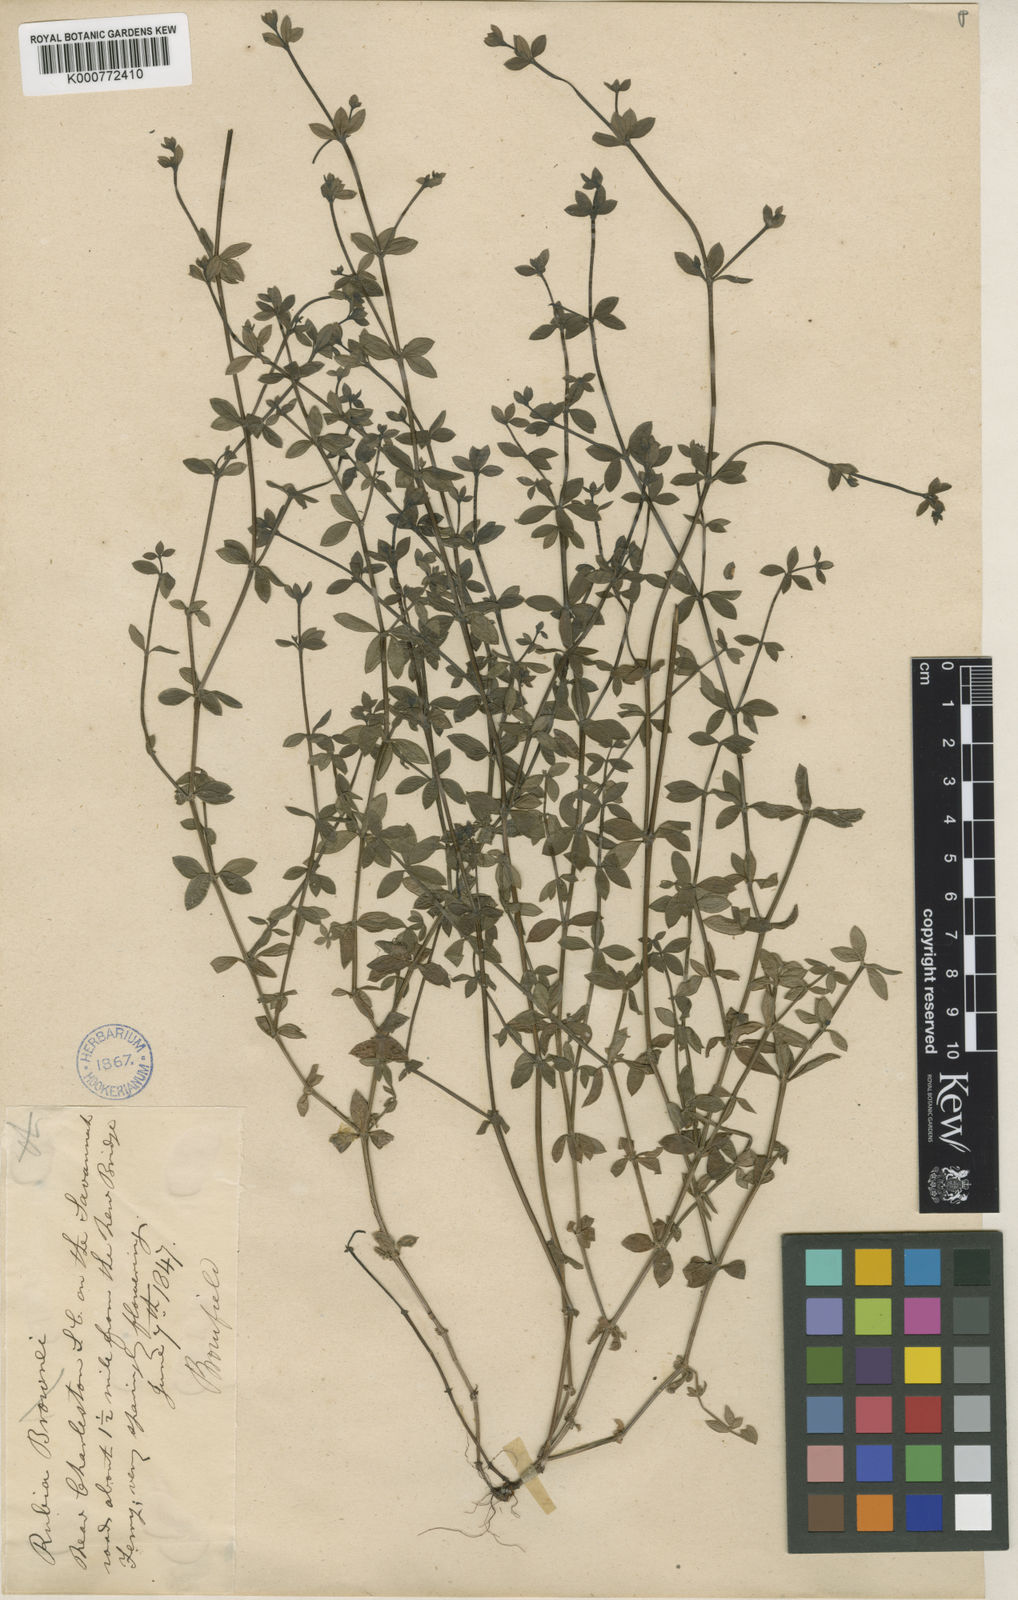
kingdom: Plantae
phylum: Tracheophyta
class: Magnoliopsida
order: Gentianales
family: Rubiaceae
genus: Galium
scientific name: Galium pilosum
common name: Hairy bedstraw
